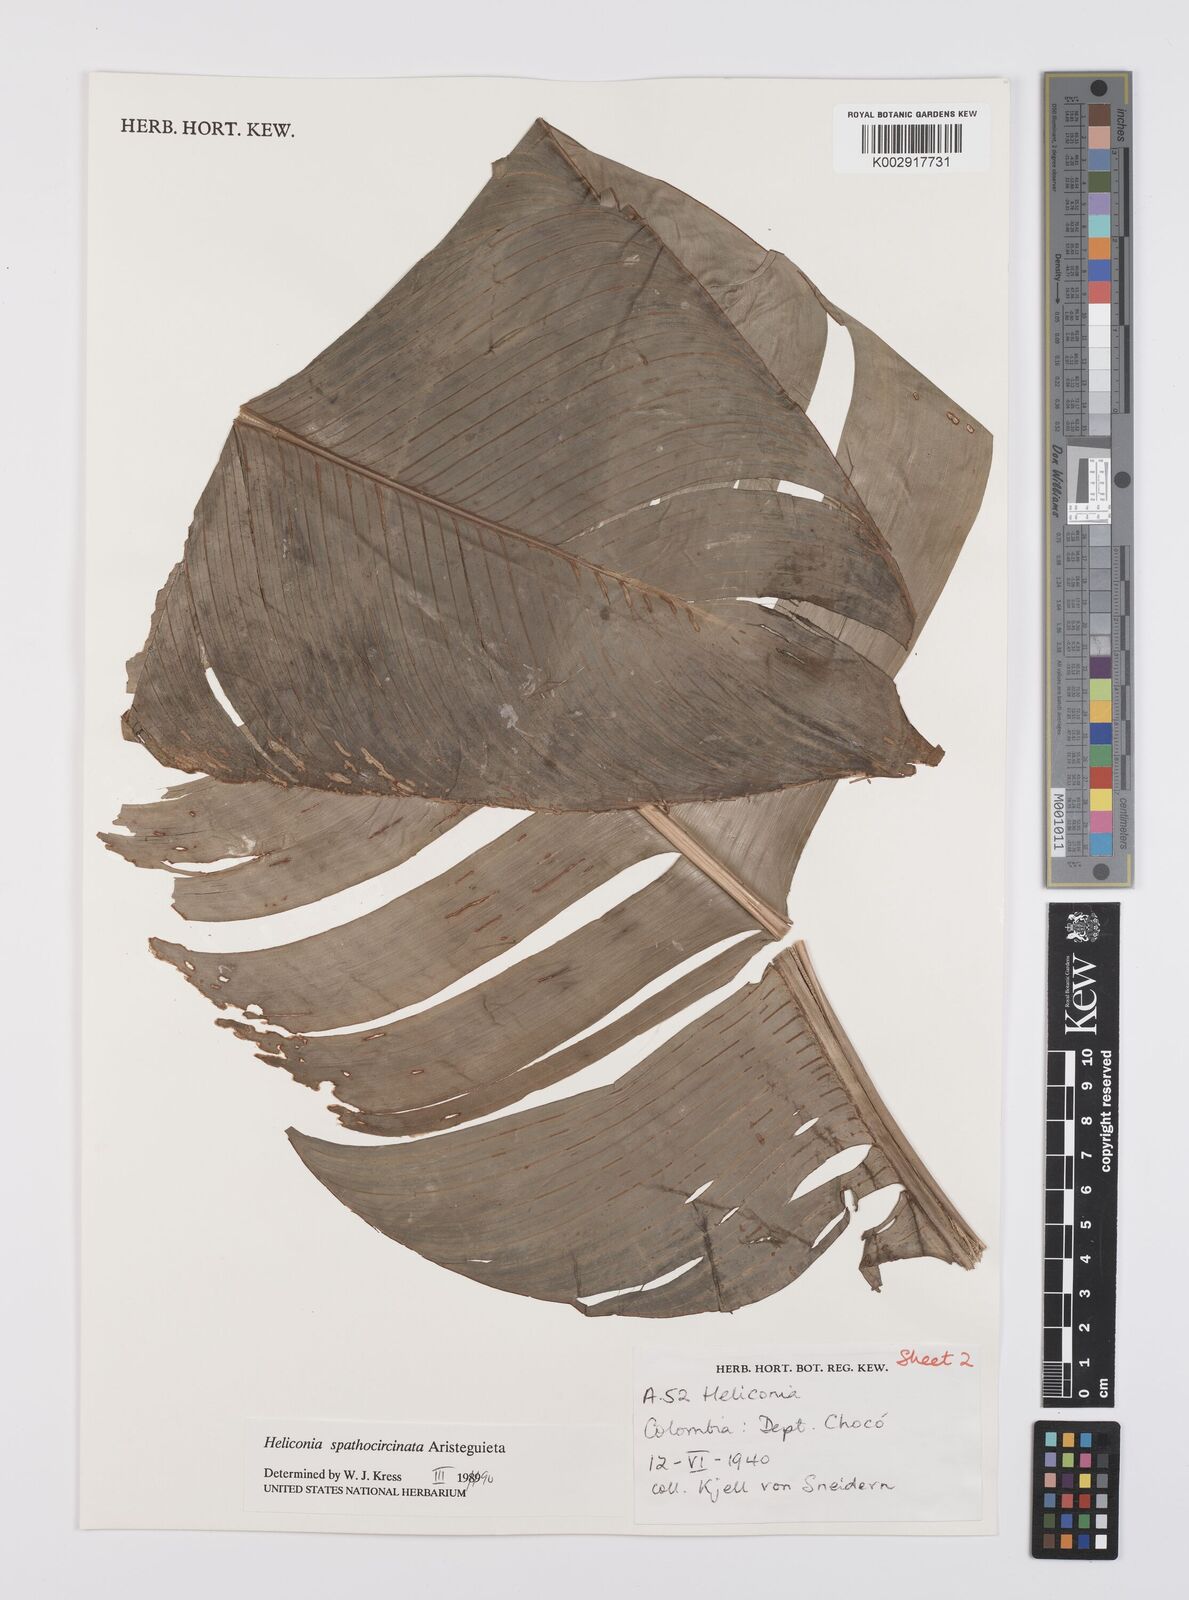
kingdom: Plantae
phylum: Tracheophyta
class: Liliopsida
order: Zingiberales
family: Heliconiaceae
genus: Heliconia
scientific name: Heliconia spathocircinata
